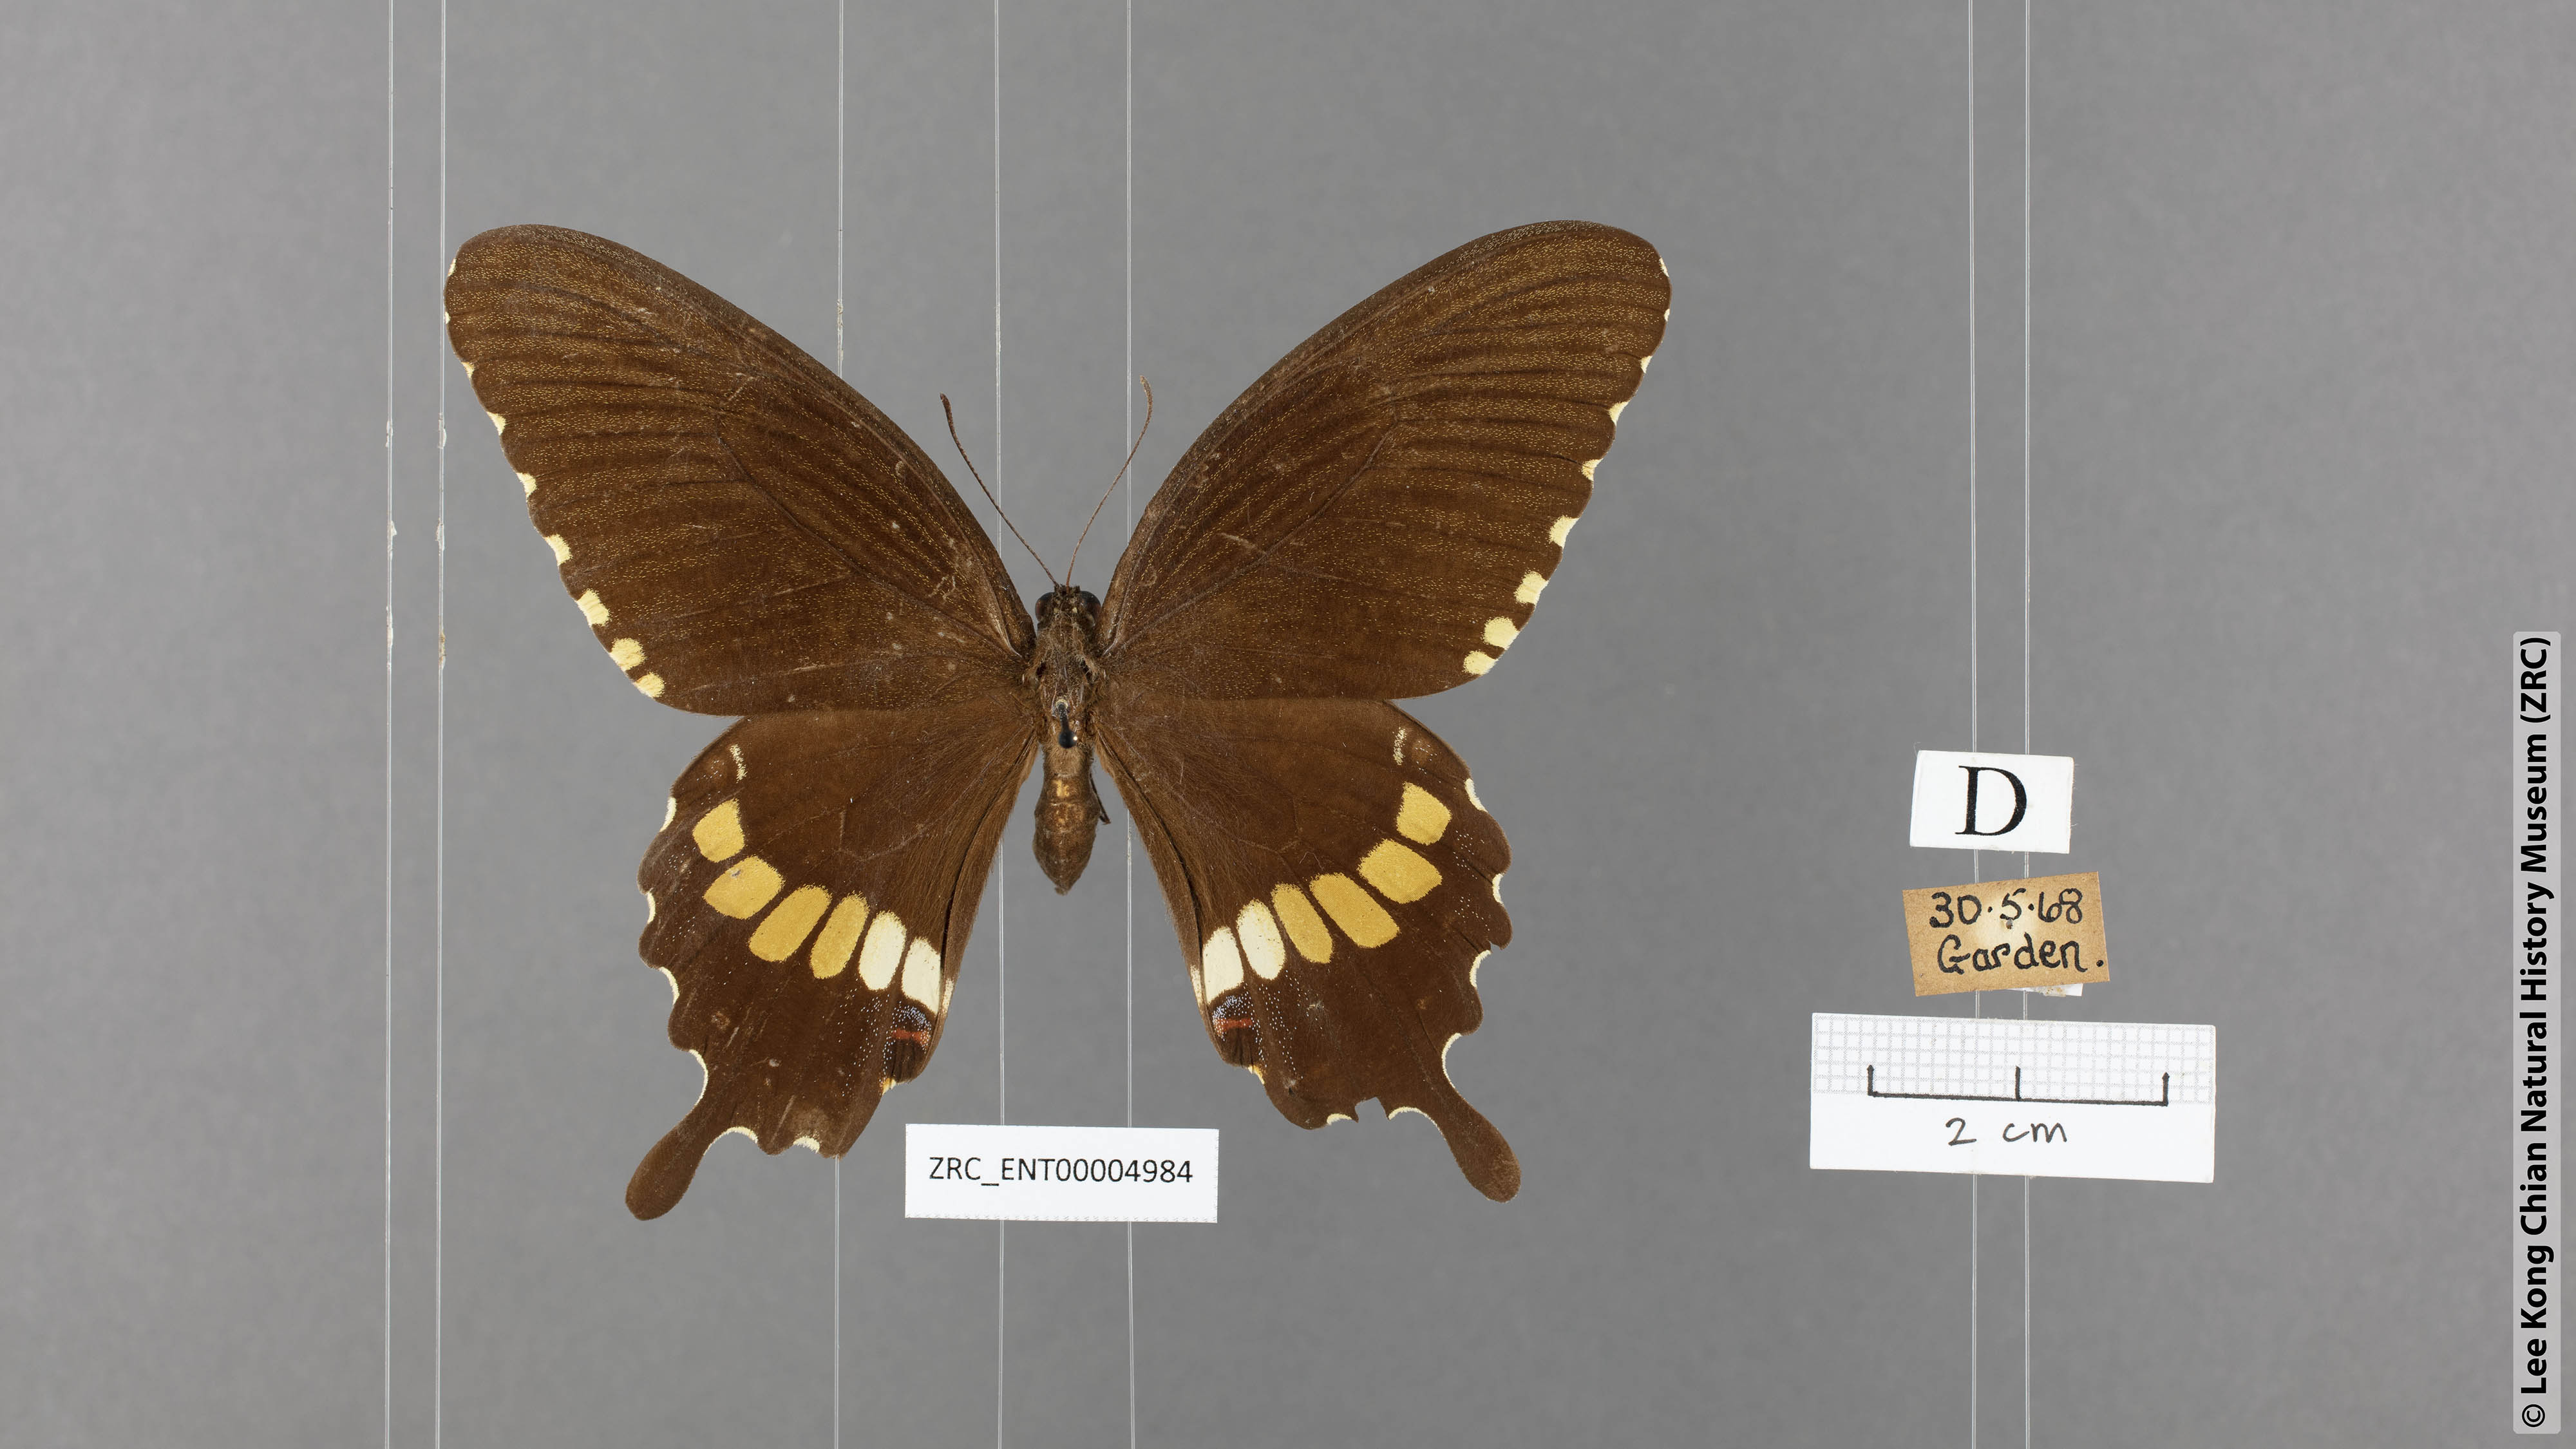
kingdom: Animalia
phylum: Arthropoda
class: Insecta
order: Lepidoptera
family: Papilionidae
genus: Papilio
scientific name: Papilio polytes
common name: Common mormon
